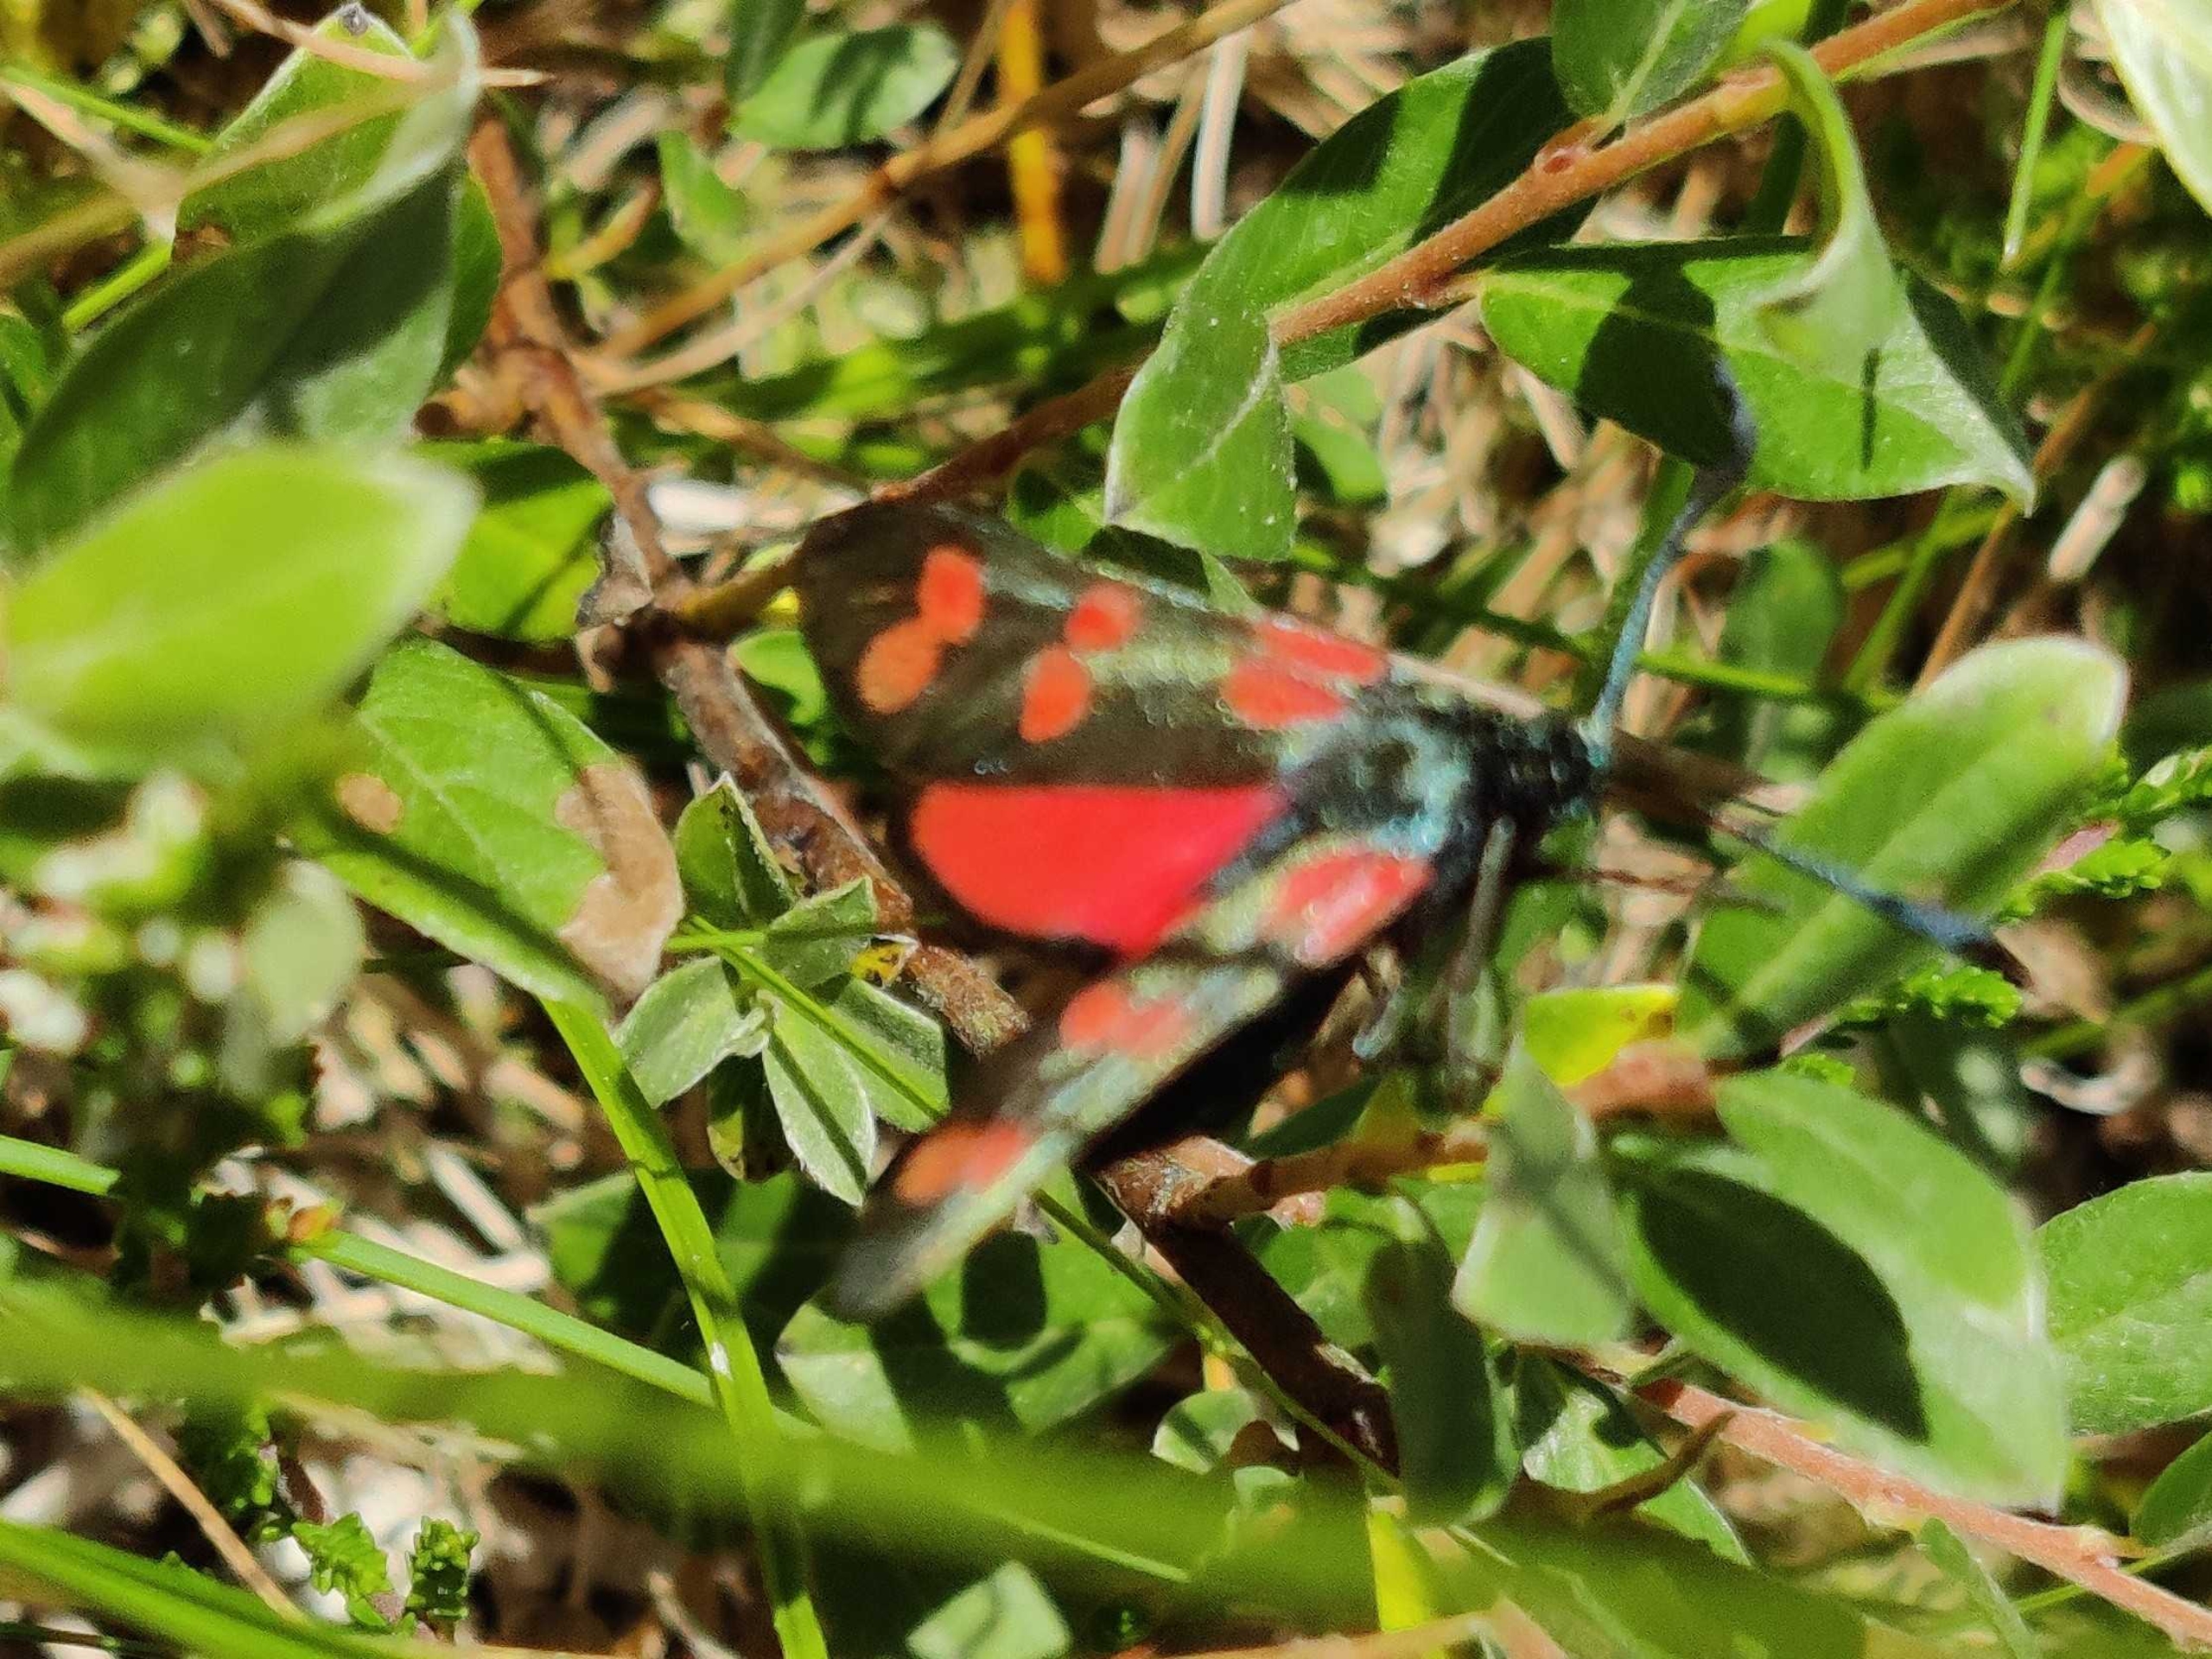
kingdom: Animalia
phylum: Arthropoda
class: Insecta
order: Lepidoptera
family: Zygaenidae
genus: Zygaena
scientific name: Zygaena filipendulae
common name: Seksplettet køllesværmer
